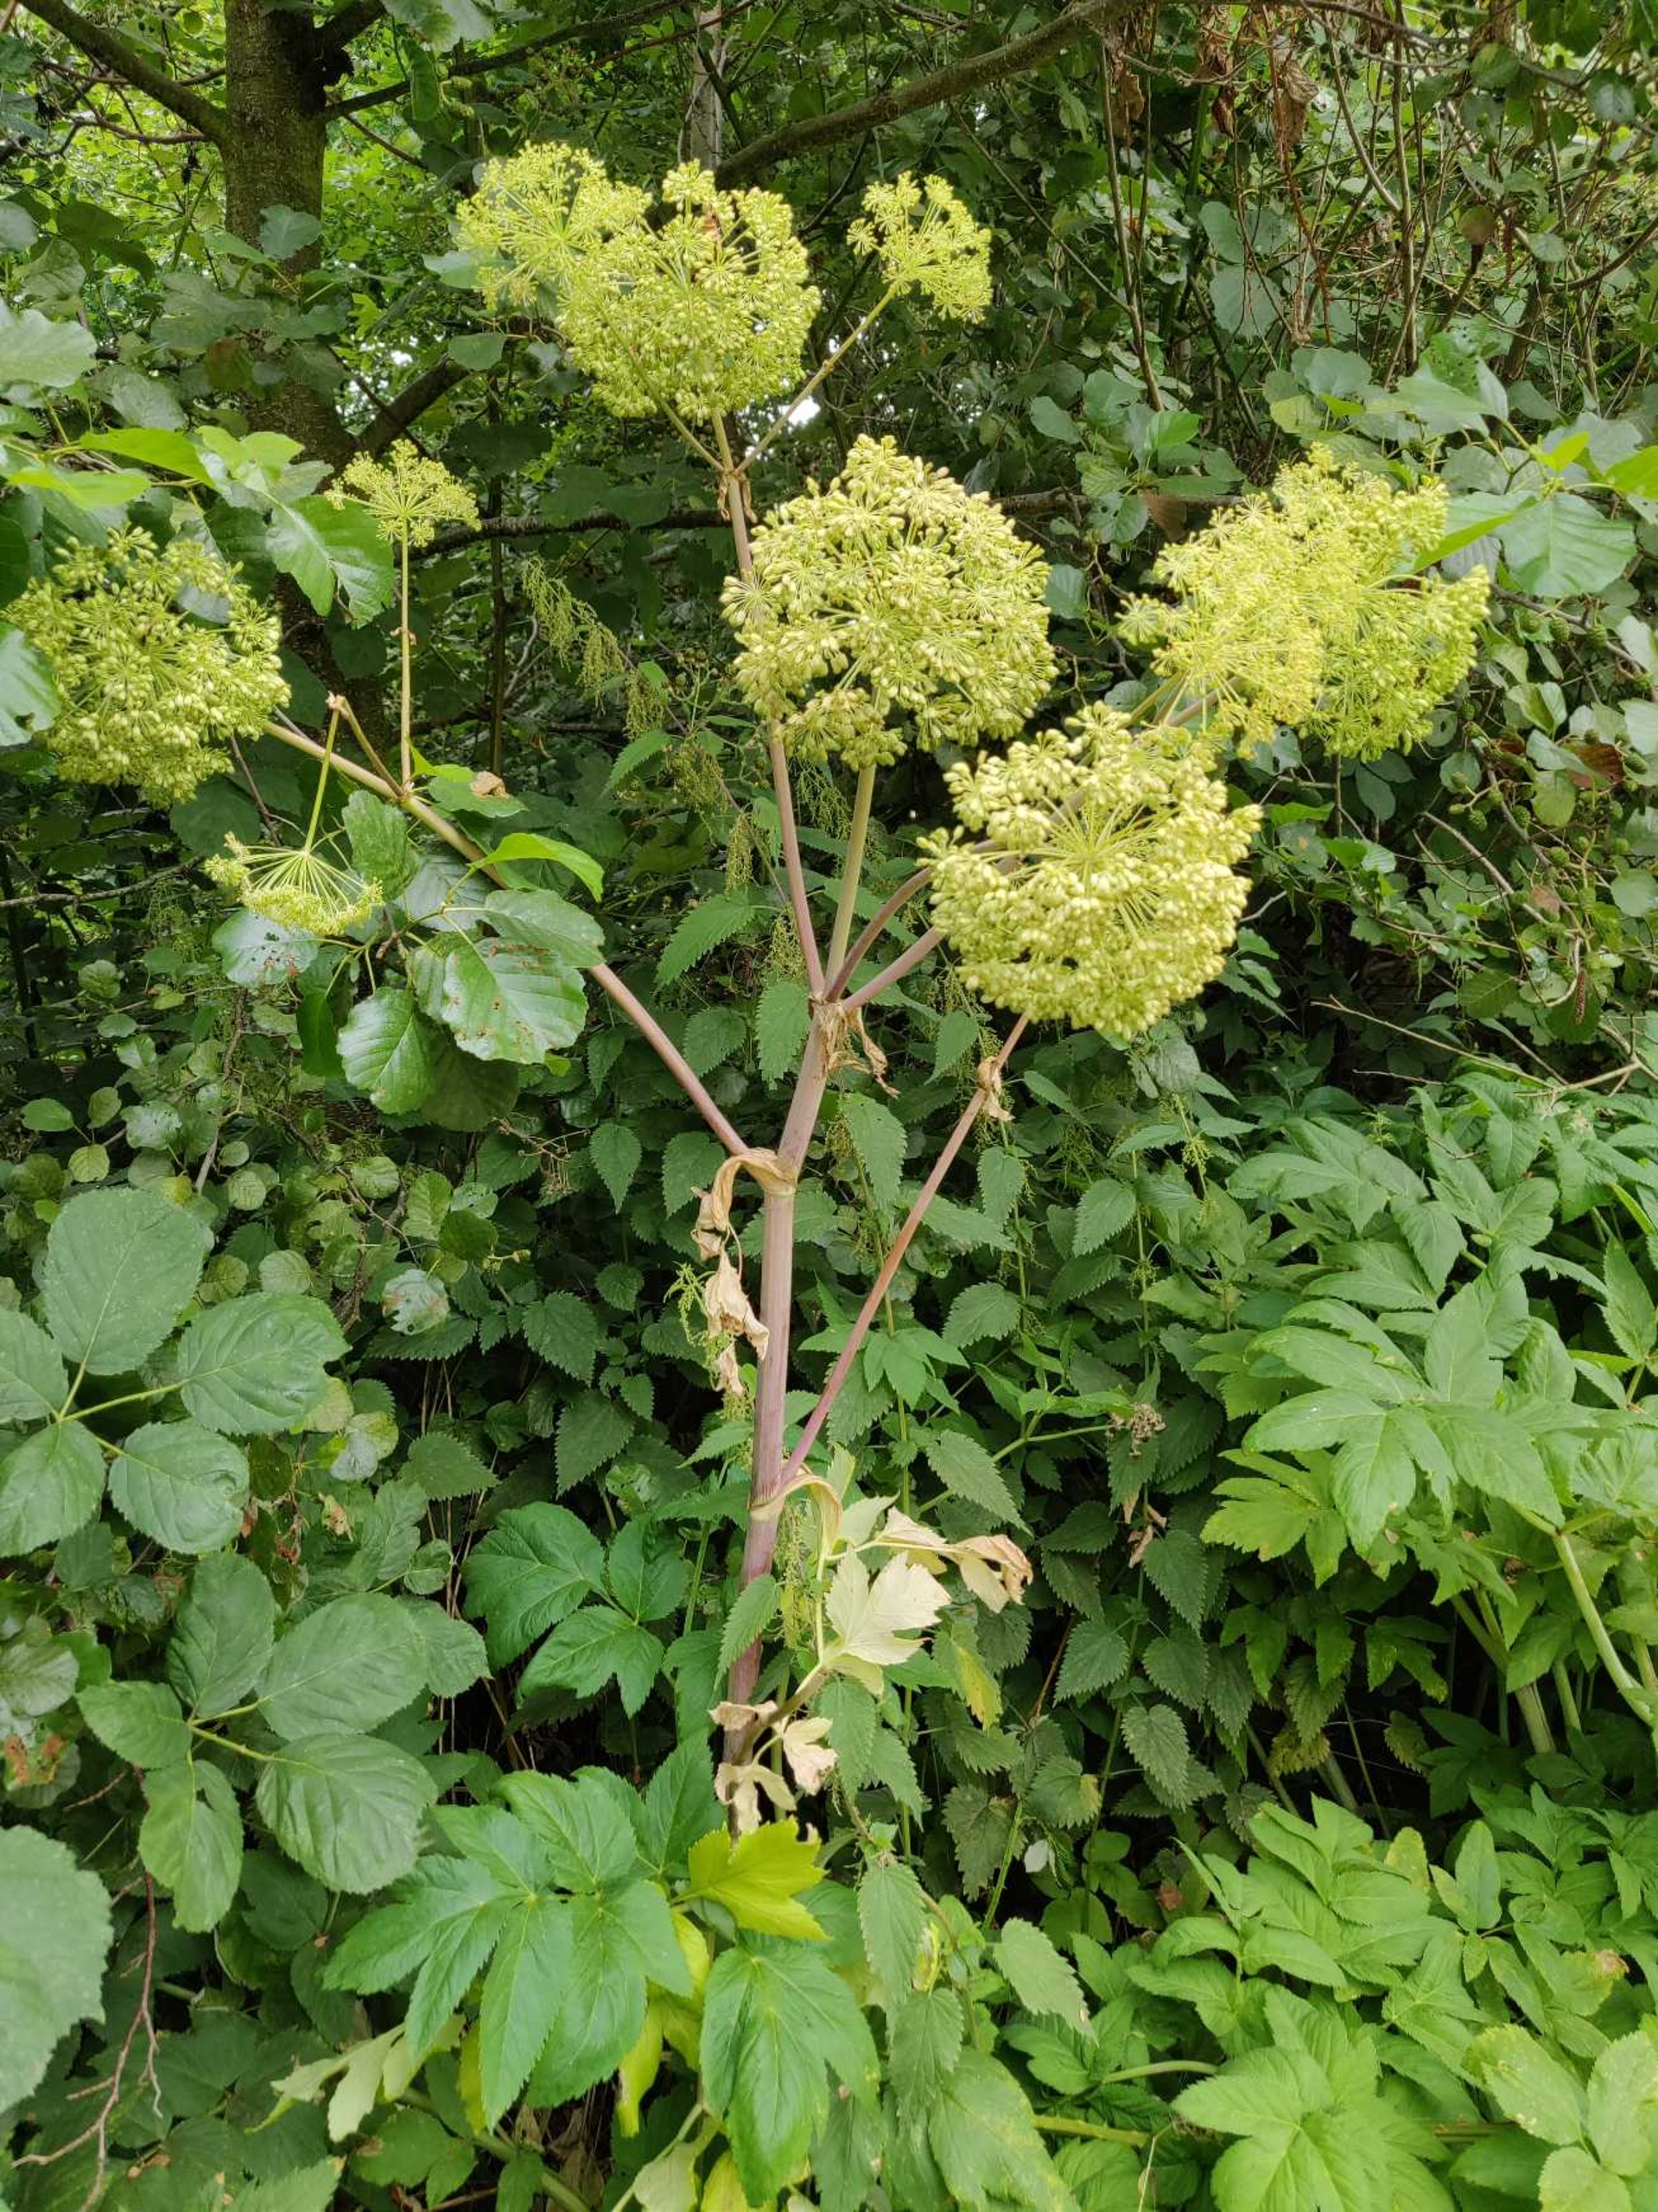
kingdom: Plantae
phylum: Tracheophyta
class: Magnoliopsida
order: Apiales
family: Apiaceae
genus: Angelica
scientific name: Angelica sylvestris
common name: Angelik
